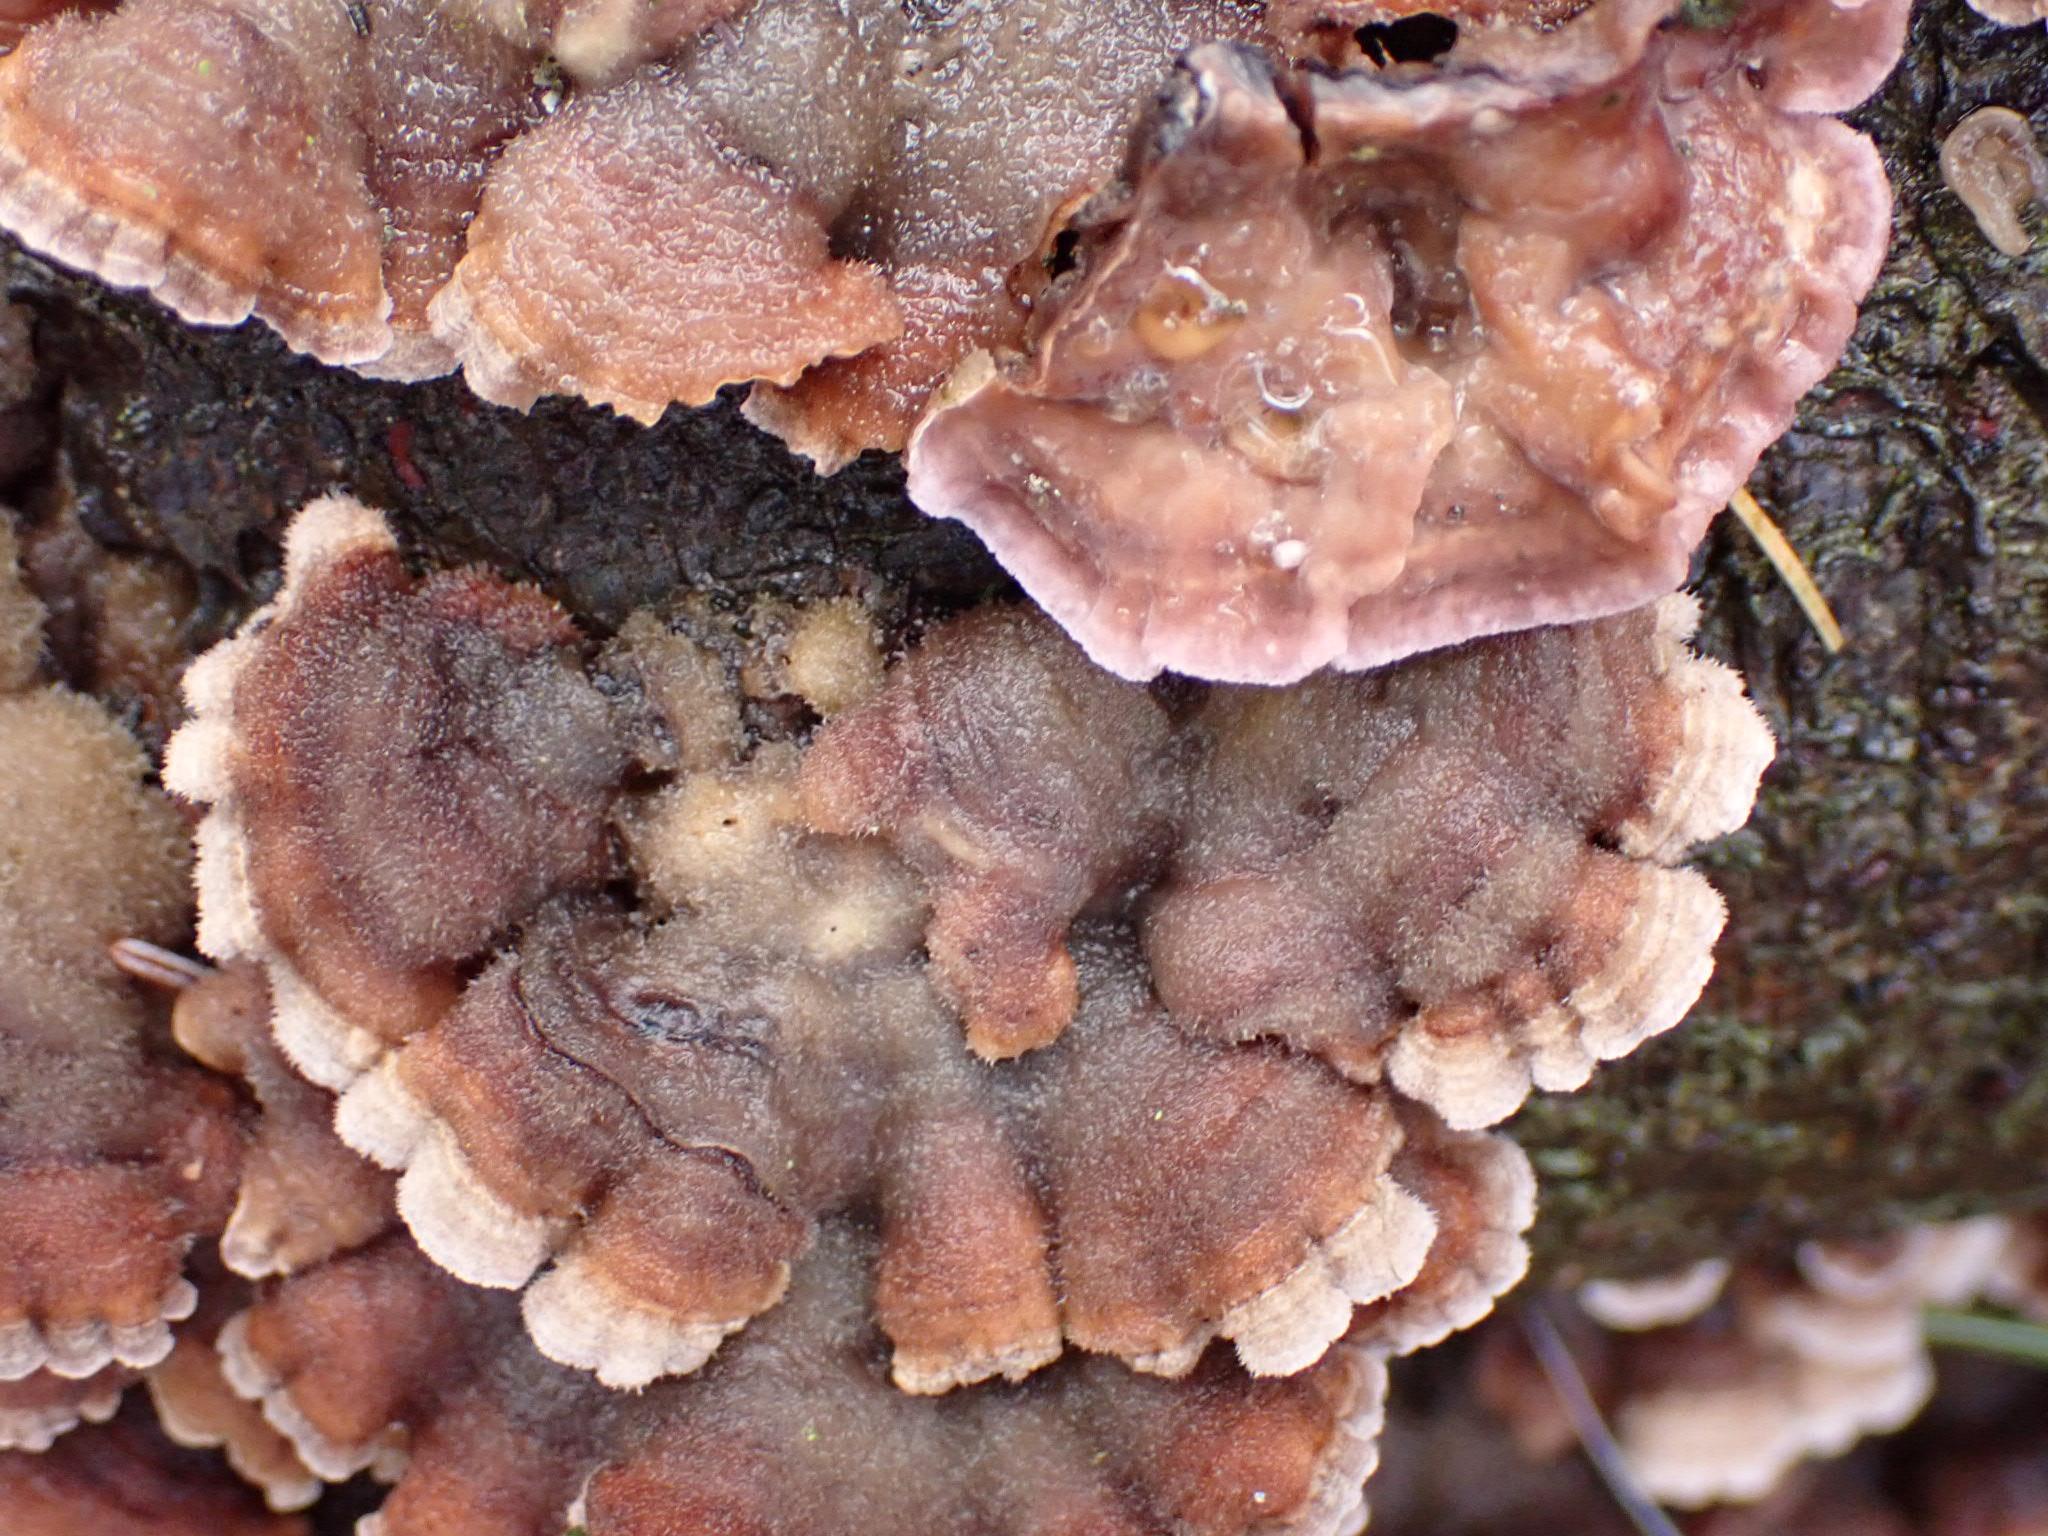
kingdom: Fungi
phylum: Basidiomycota
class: Agaricomycetes
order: Agaricales
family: Cyphellaceae
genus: Chondrostereum
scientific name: Chondrostereum purpureum
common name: purpurlædersvamp
